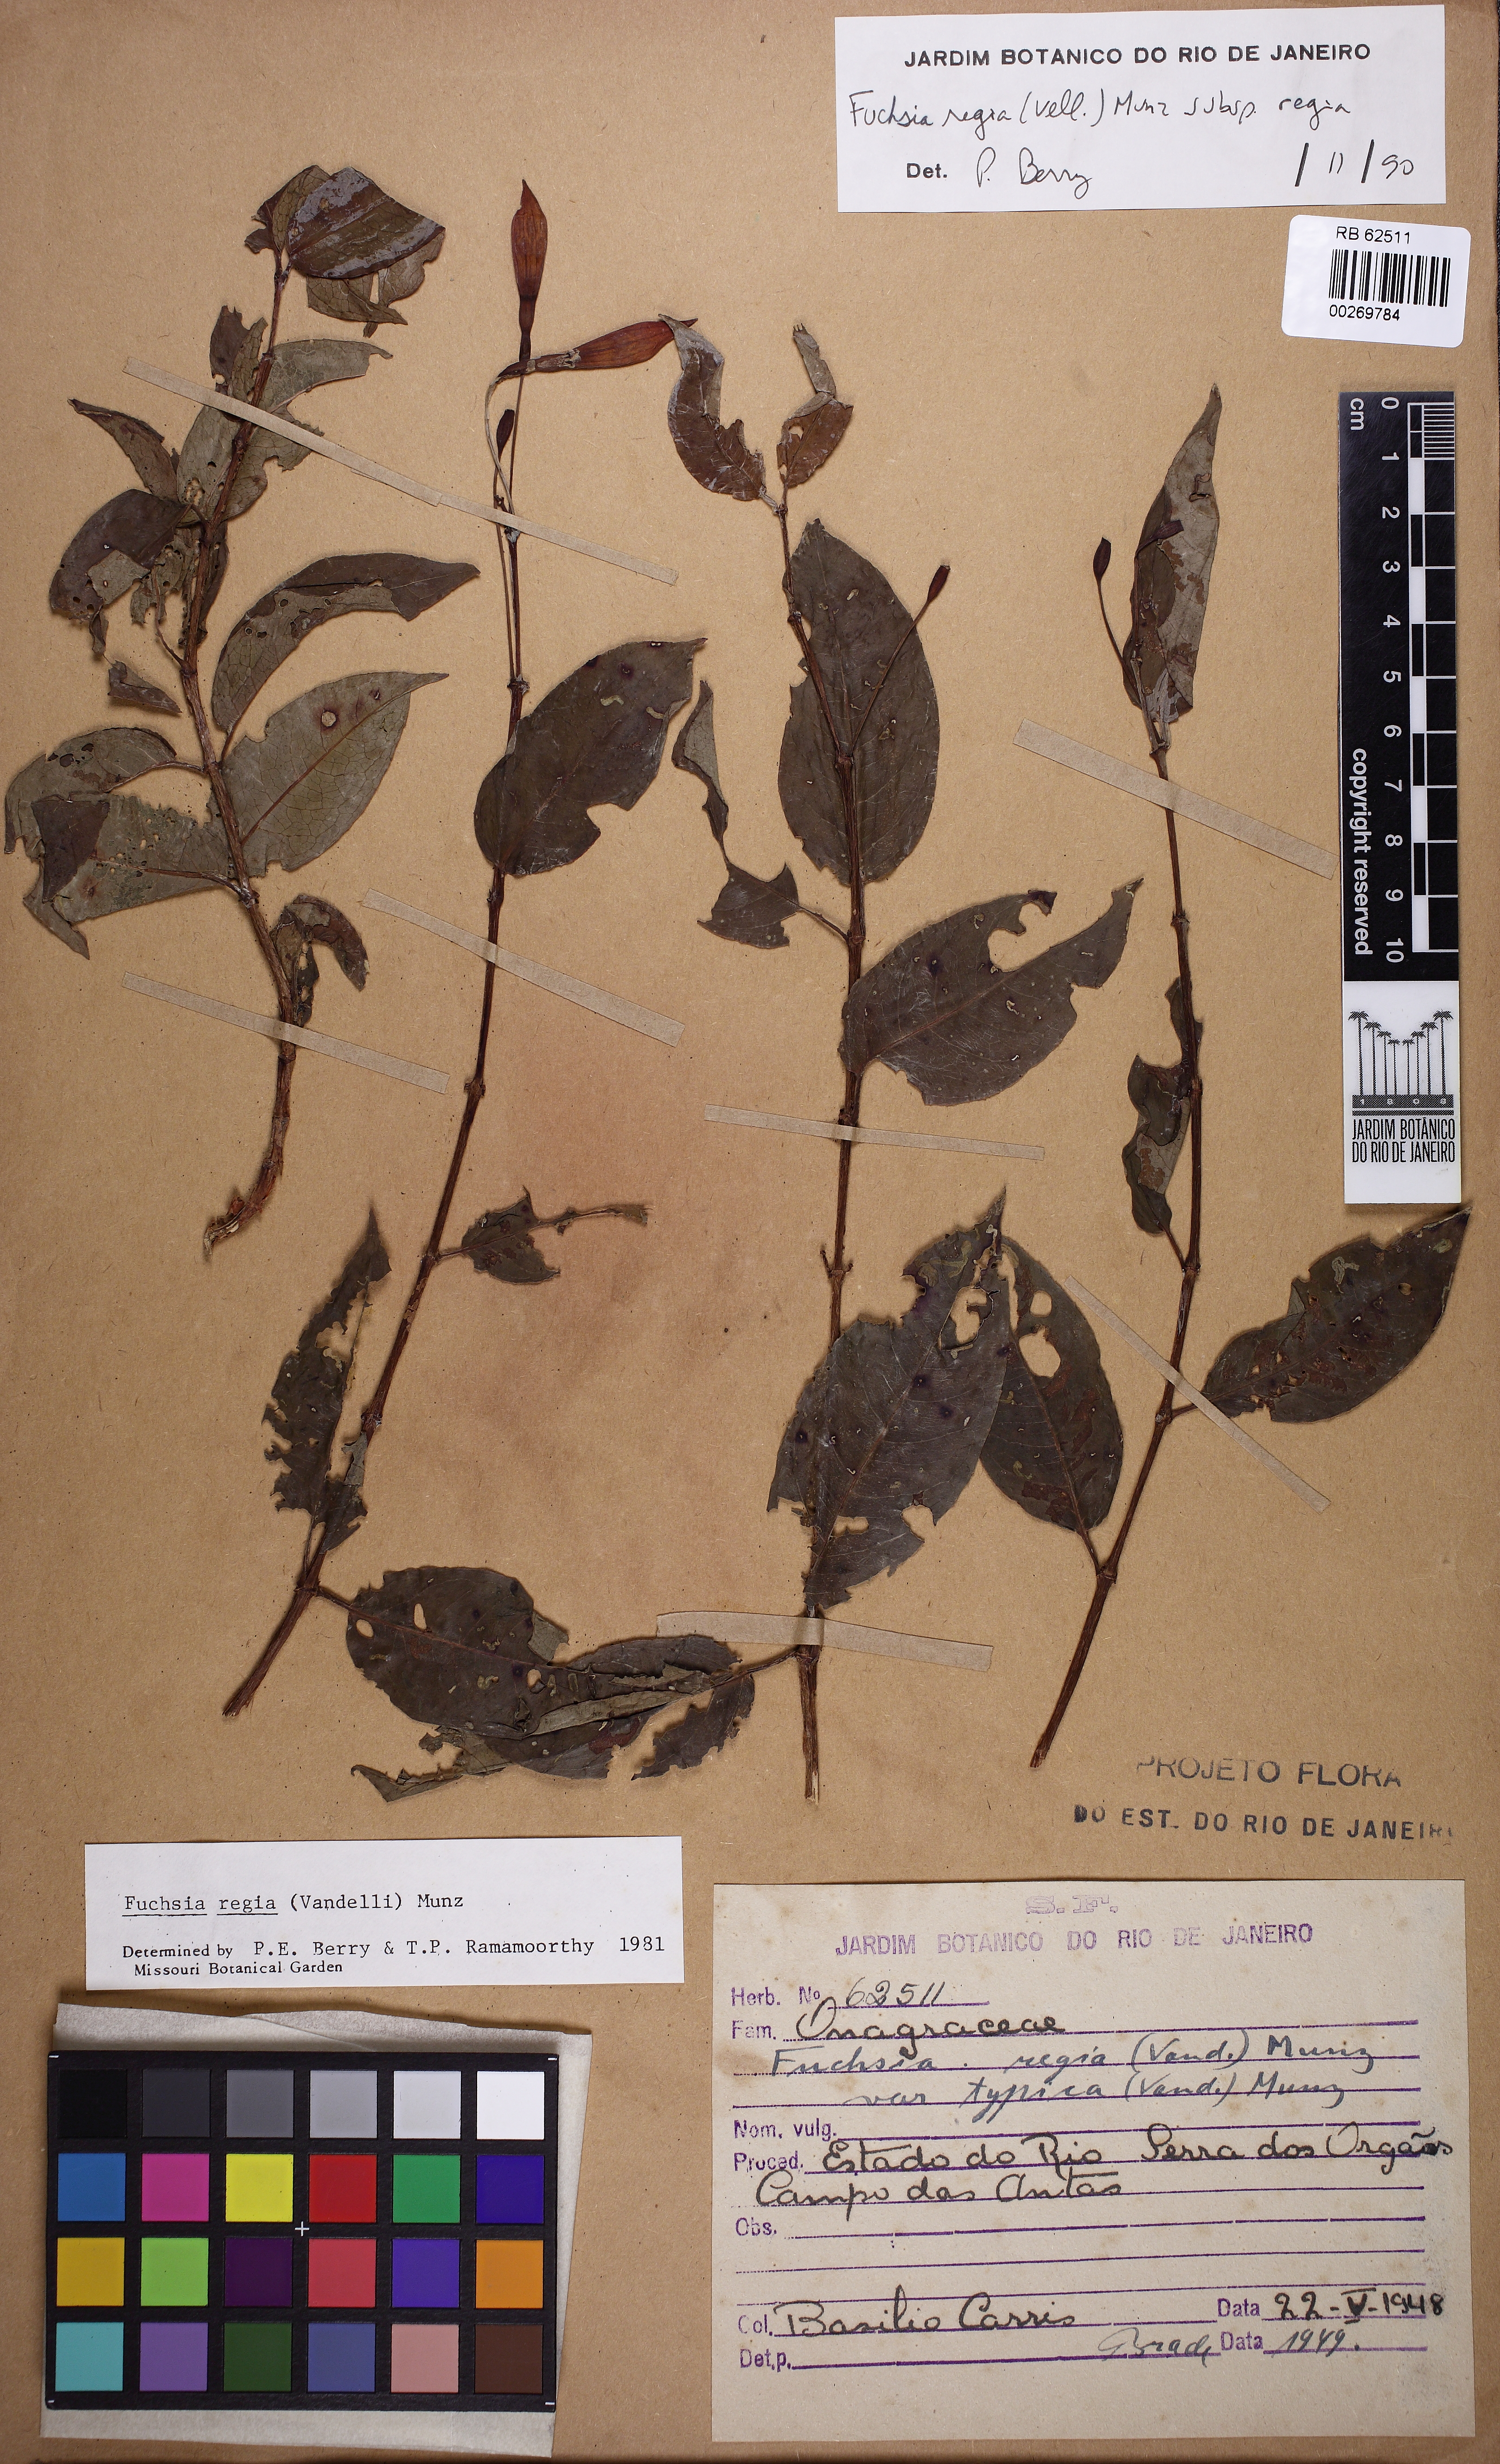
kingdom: Plantae
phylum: Tracheophyta
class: Magnoliopsida
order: Myrtales
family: Onagraceae
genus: Fuchsia
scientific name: Fuchsia regia
